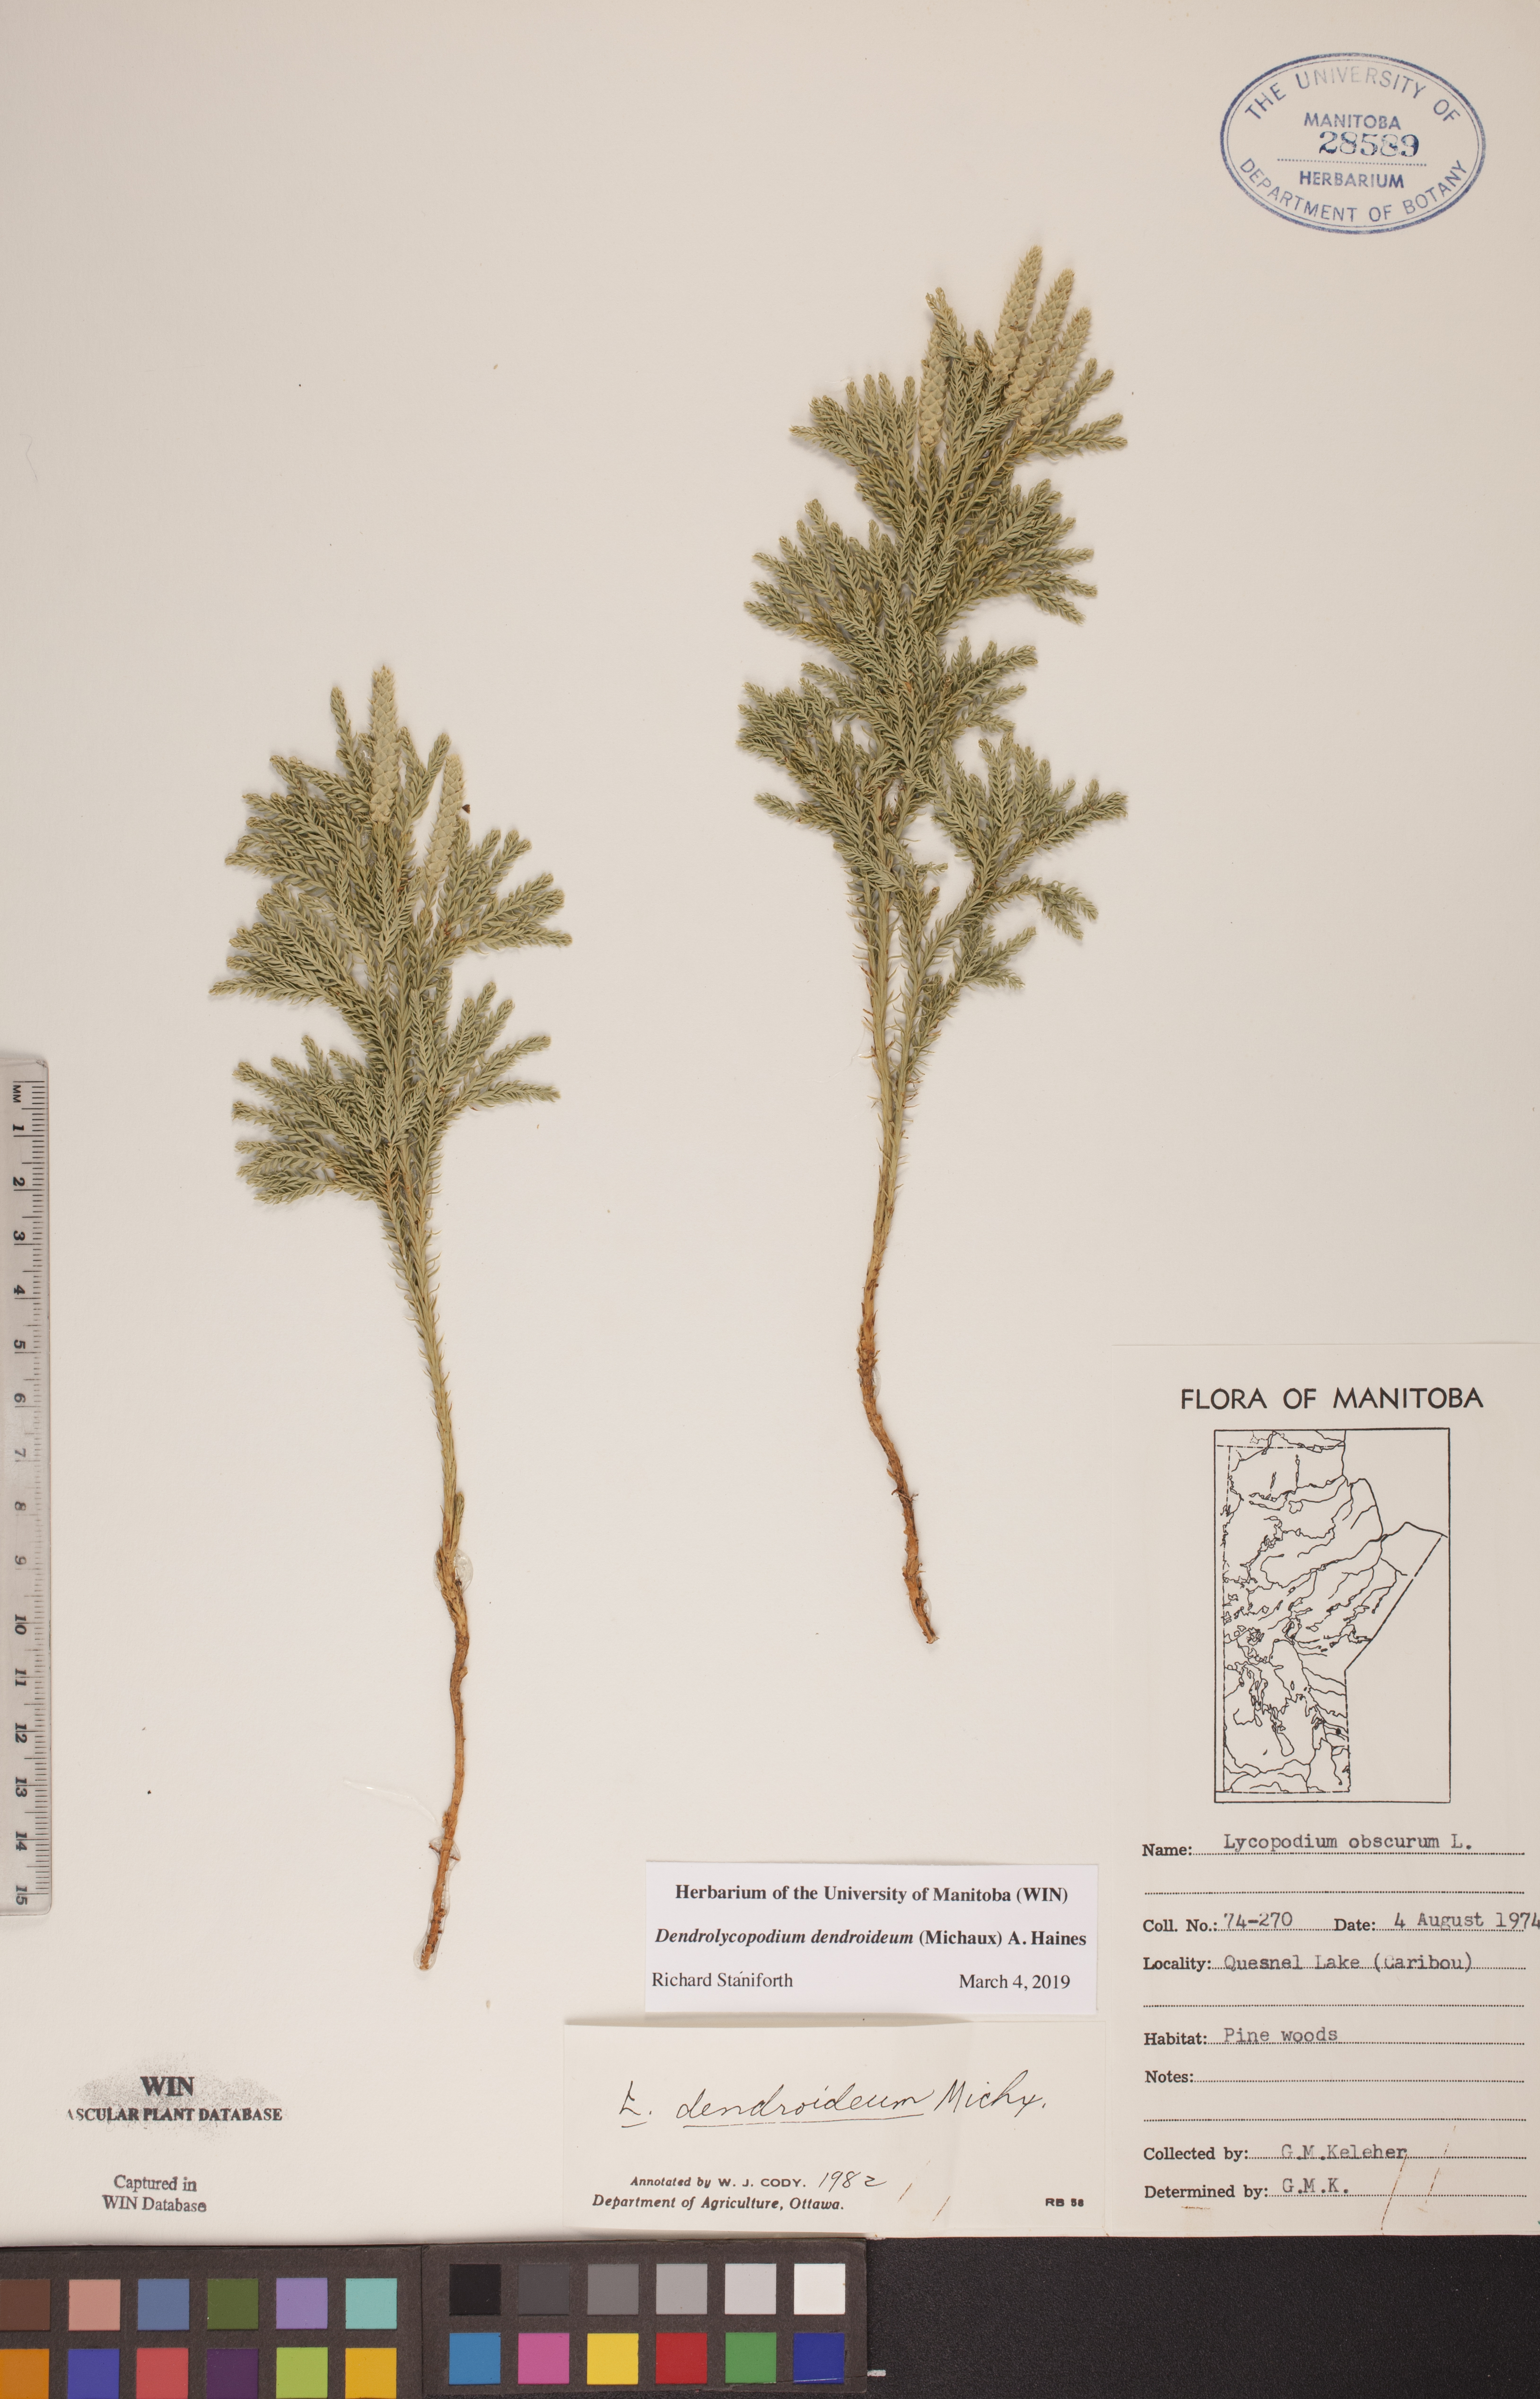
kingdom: Plantae
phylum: Tracheophyta
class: Lycopodiopsida
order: Lycopodiales
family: Lycopodiaceae
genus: Dendrolycopodium
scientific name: Dendrolycopodium dendroideum
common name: Northern tree-clubmoss
